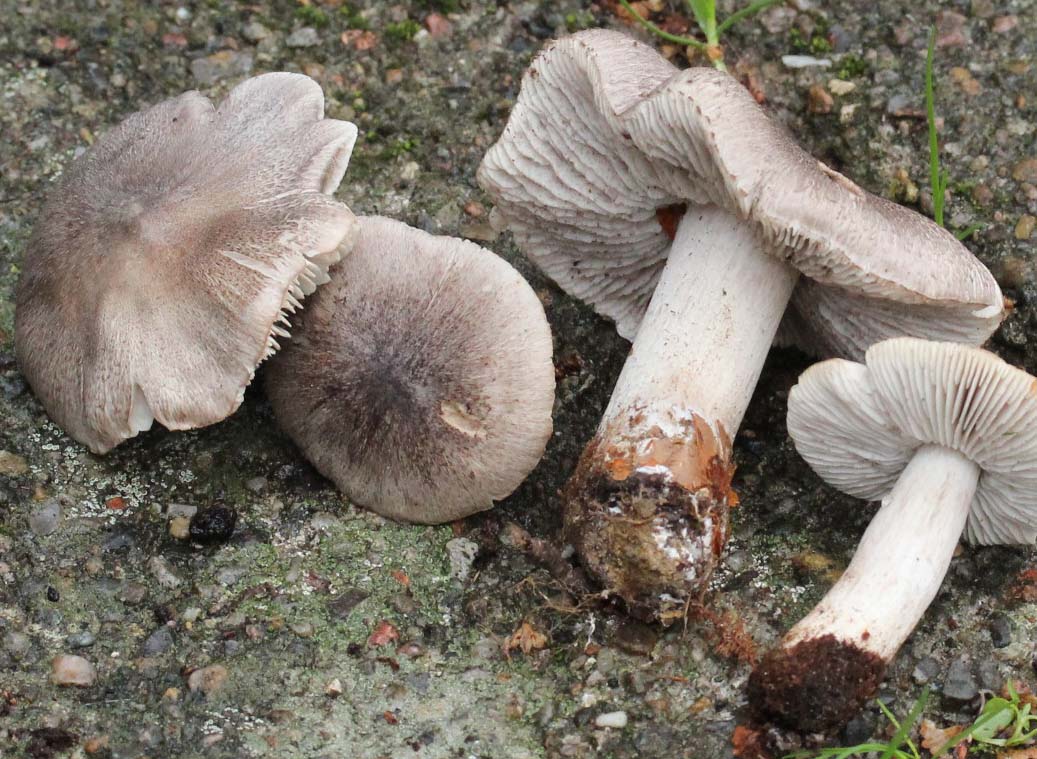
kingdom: Fungi
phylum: Basidiomycota
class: Agaricomycetes
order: Agaricales
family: Tricholomataceae
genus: Tricholoma
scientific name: Tricholoma sciodes
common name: stribet ridderhat
